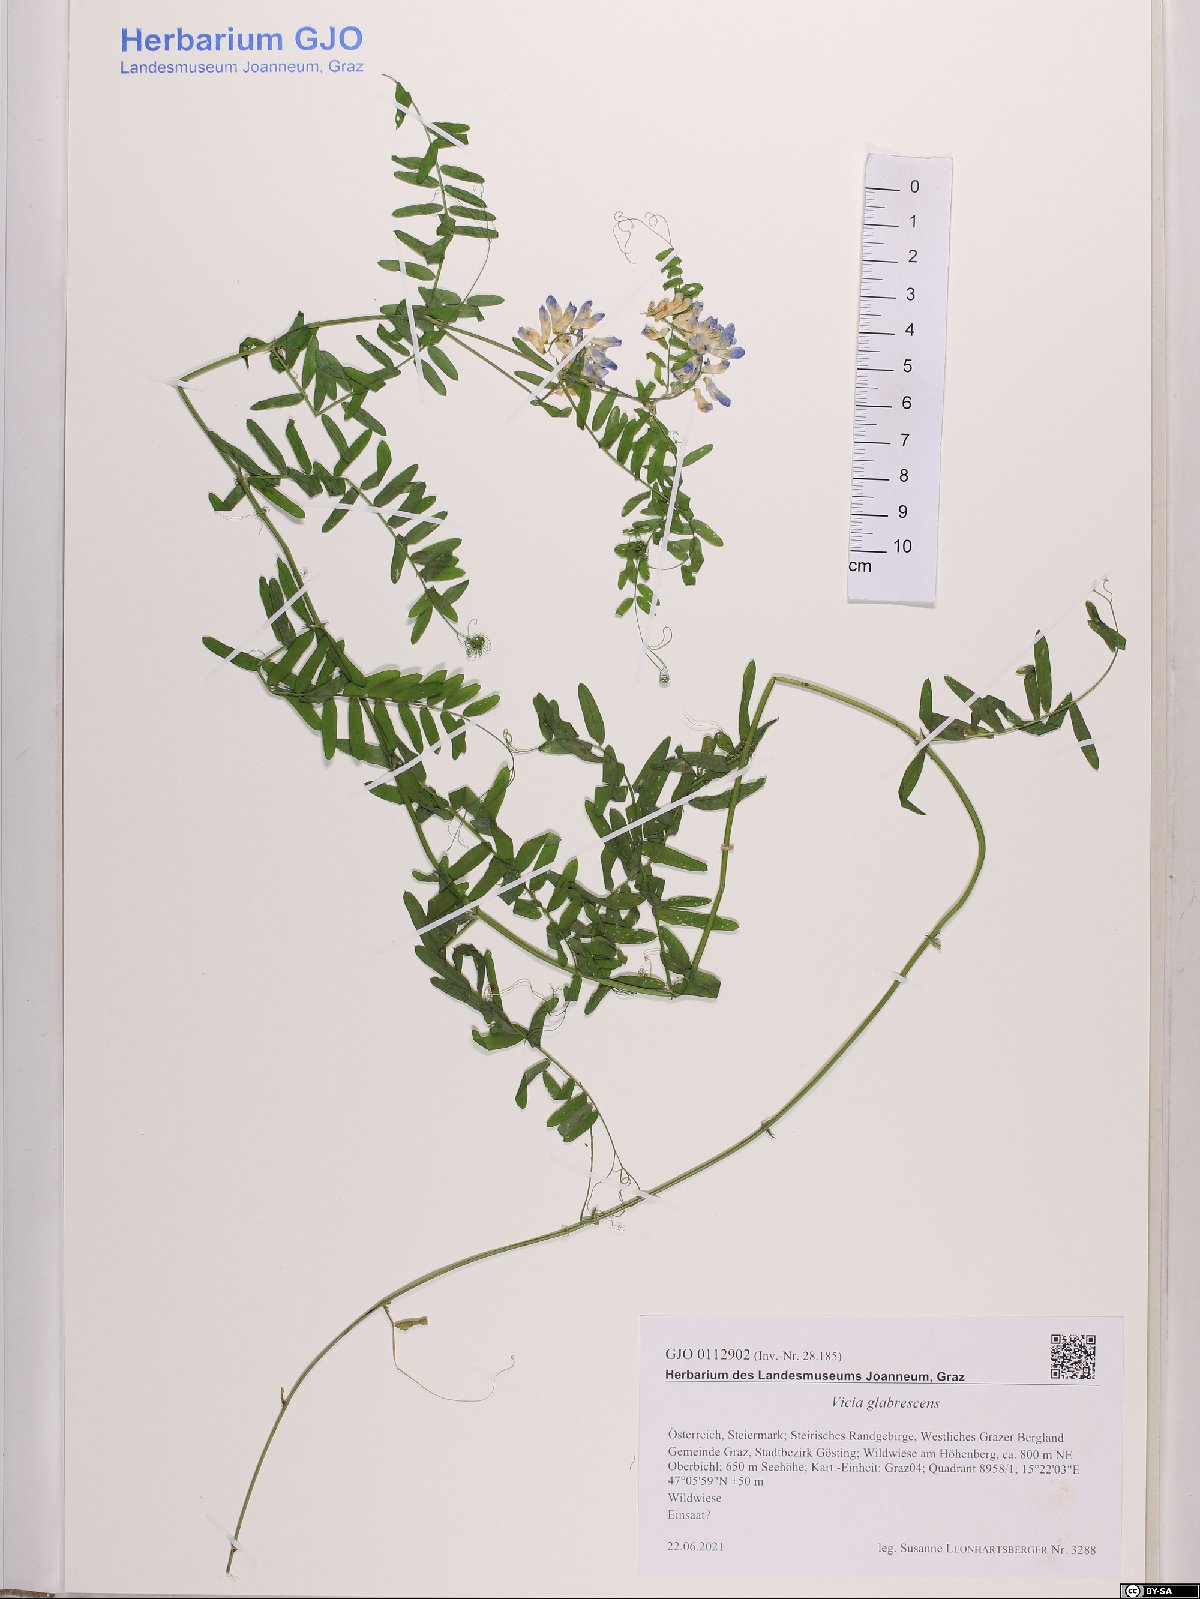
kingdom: Plantae
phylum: Tracheophyta
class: Magnoliopsida
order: Fabales
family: Fabaceae
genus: Vicia
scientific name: Vicia villosa
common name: Fodder vetch
